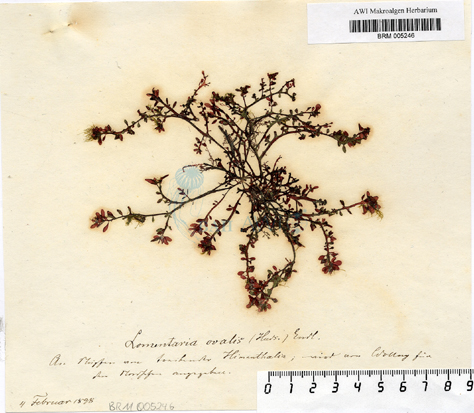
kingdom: Plantae
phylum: Rhodophyta
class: Florideophyceae
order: Rhodymeniales
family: Lomentariaceae
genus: Lomentaria
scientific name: Lomentaria
